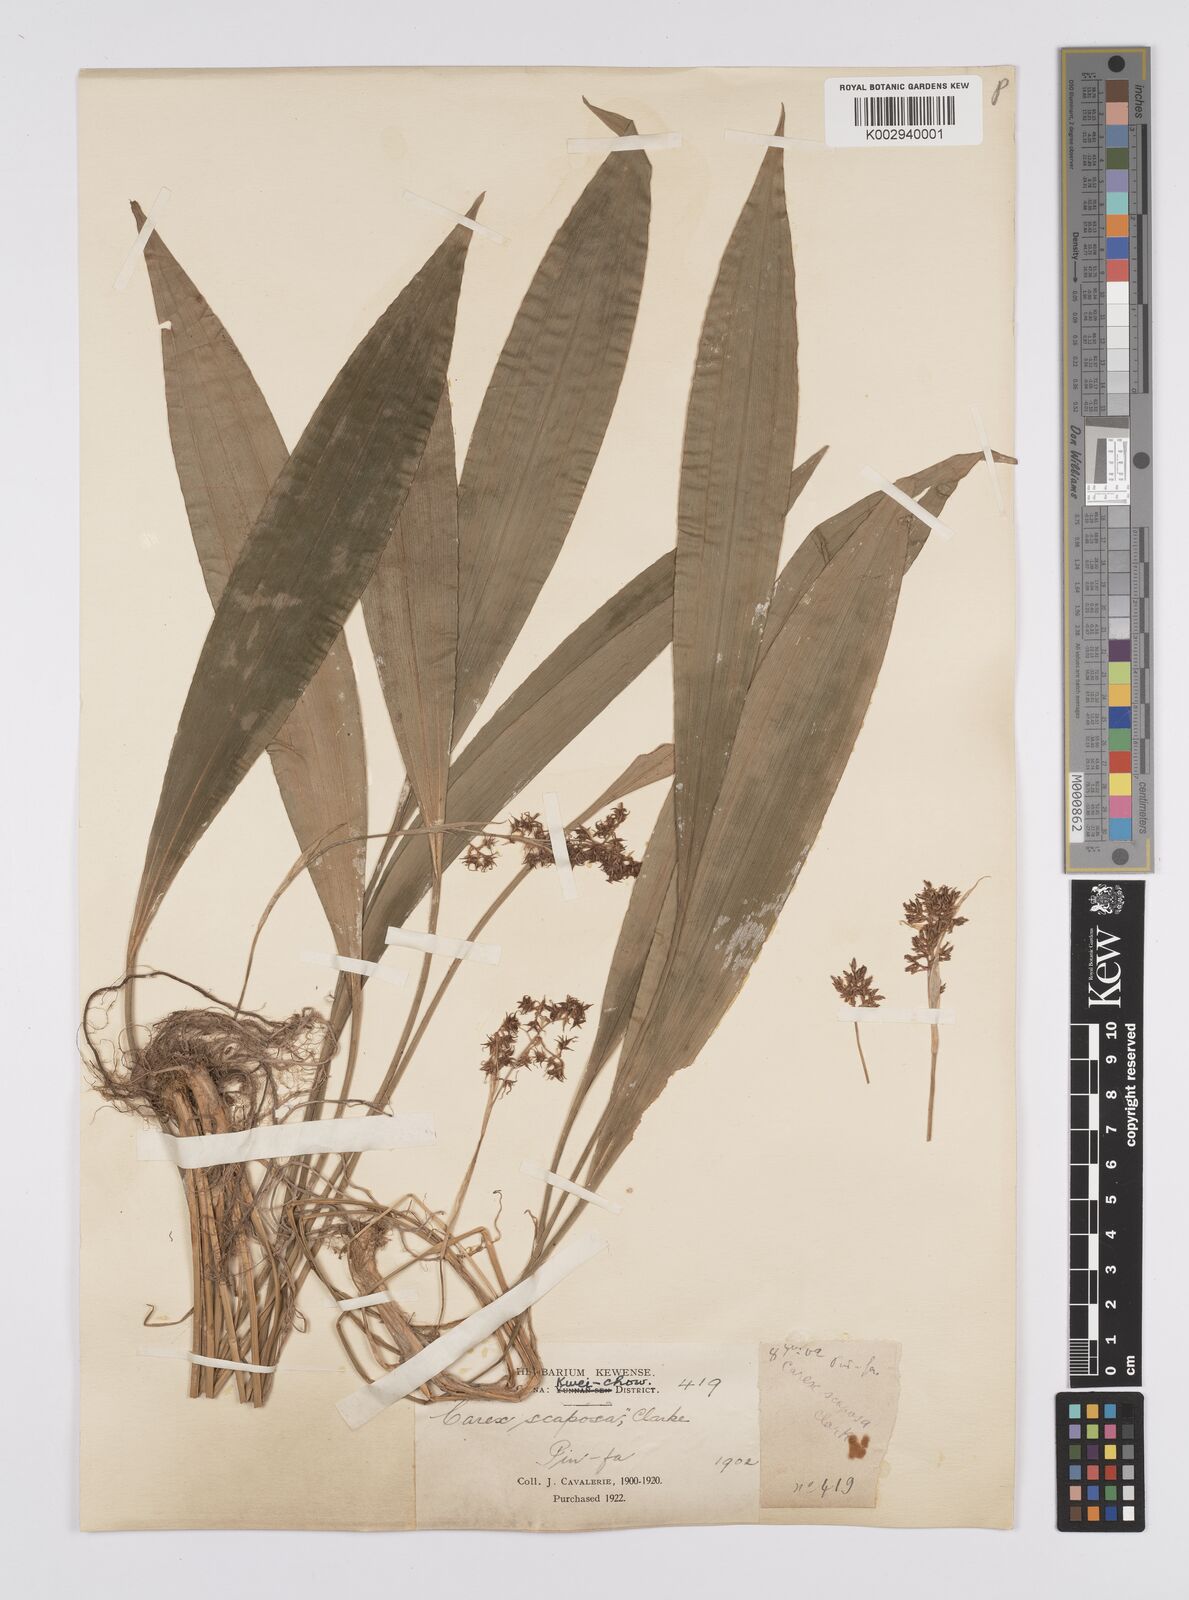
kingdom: Plantae
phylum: Tracheophyta
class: Liliopsida
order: Poales
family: Cyperaceae
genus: Carex
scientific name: Carex scaposa
